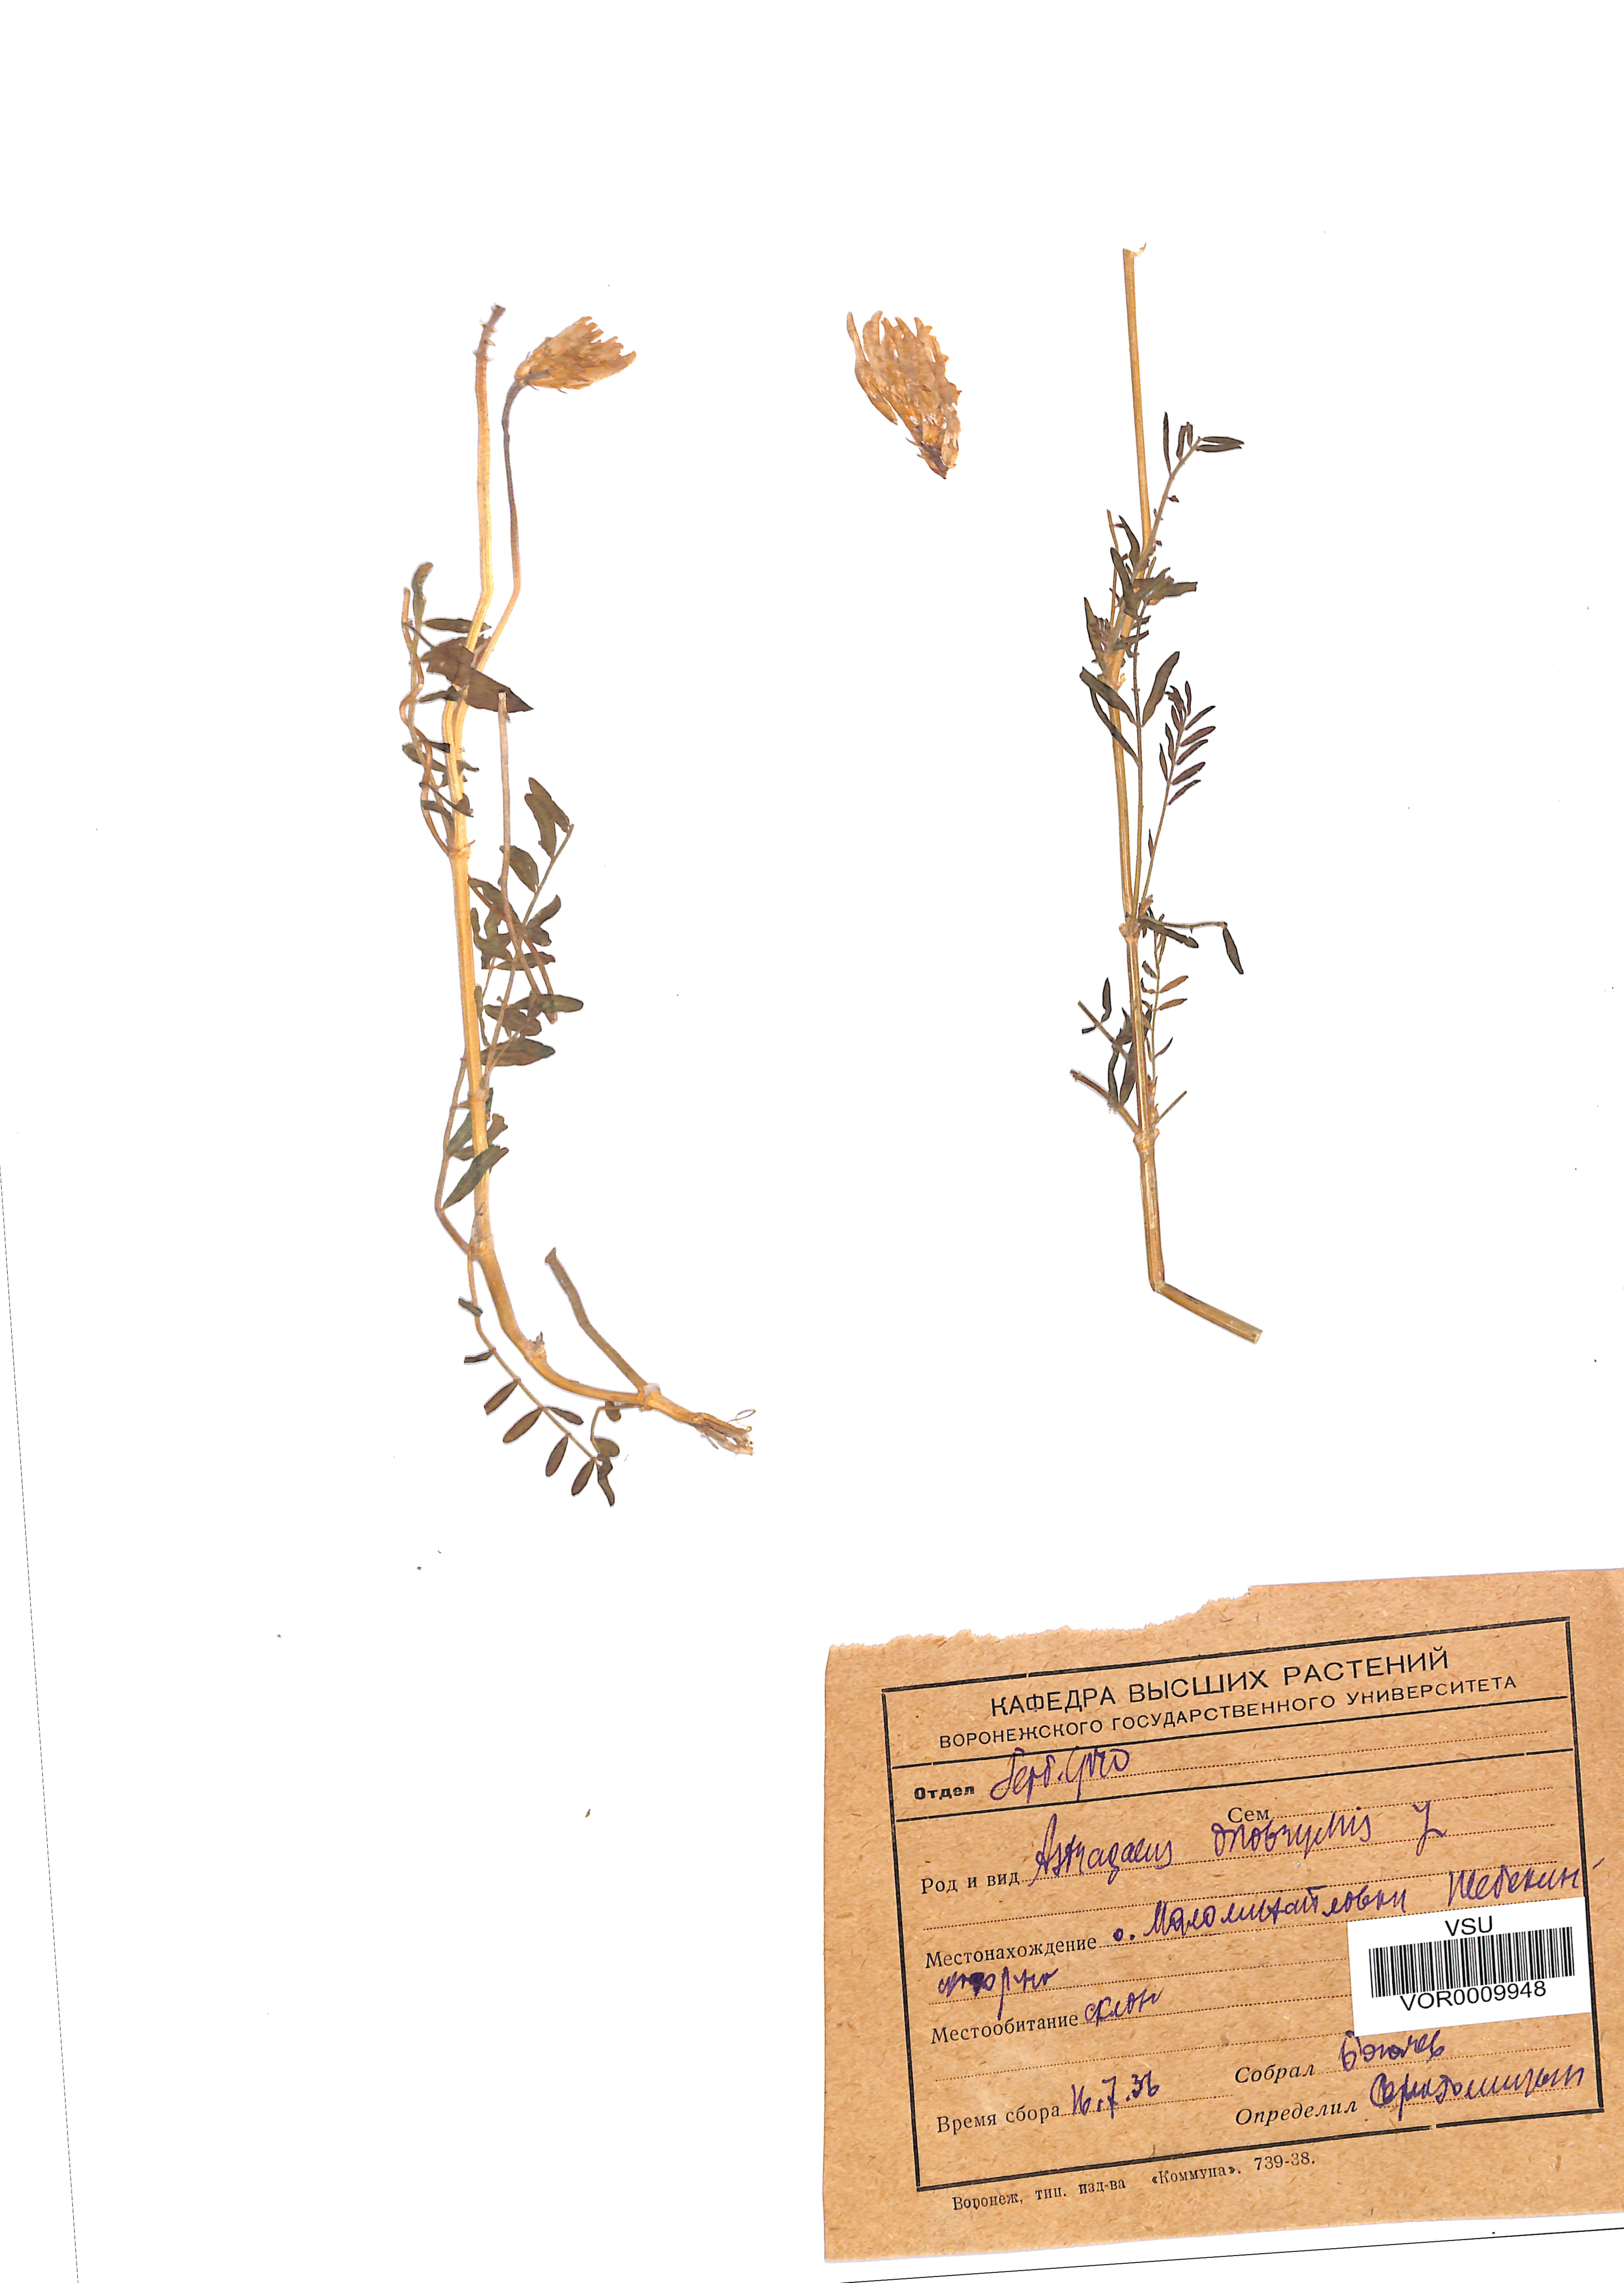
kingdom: Plantae
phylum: Tracheophyta
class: Magnoliopsida
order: Fabales
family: Fabaceae
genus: Astragalus
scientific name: Astragalus onobrychis
